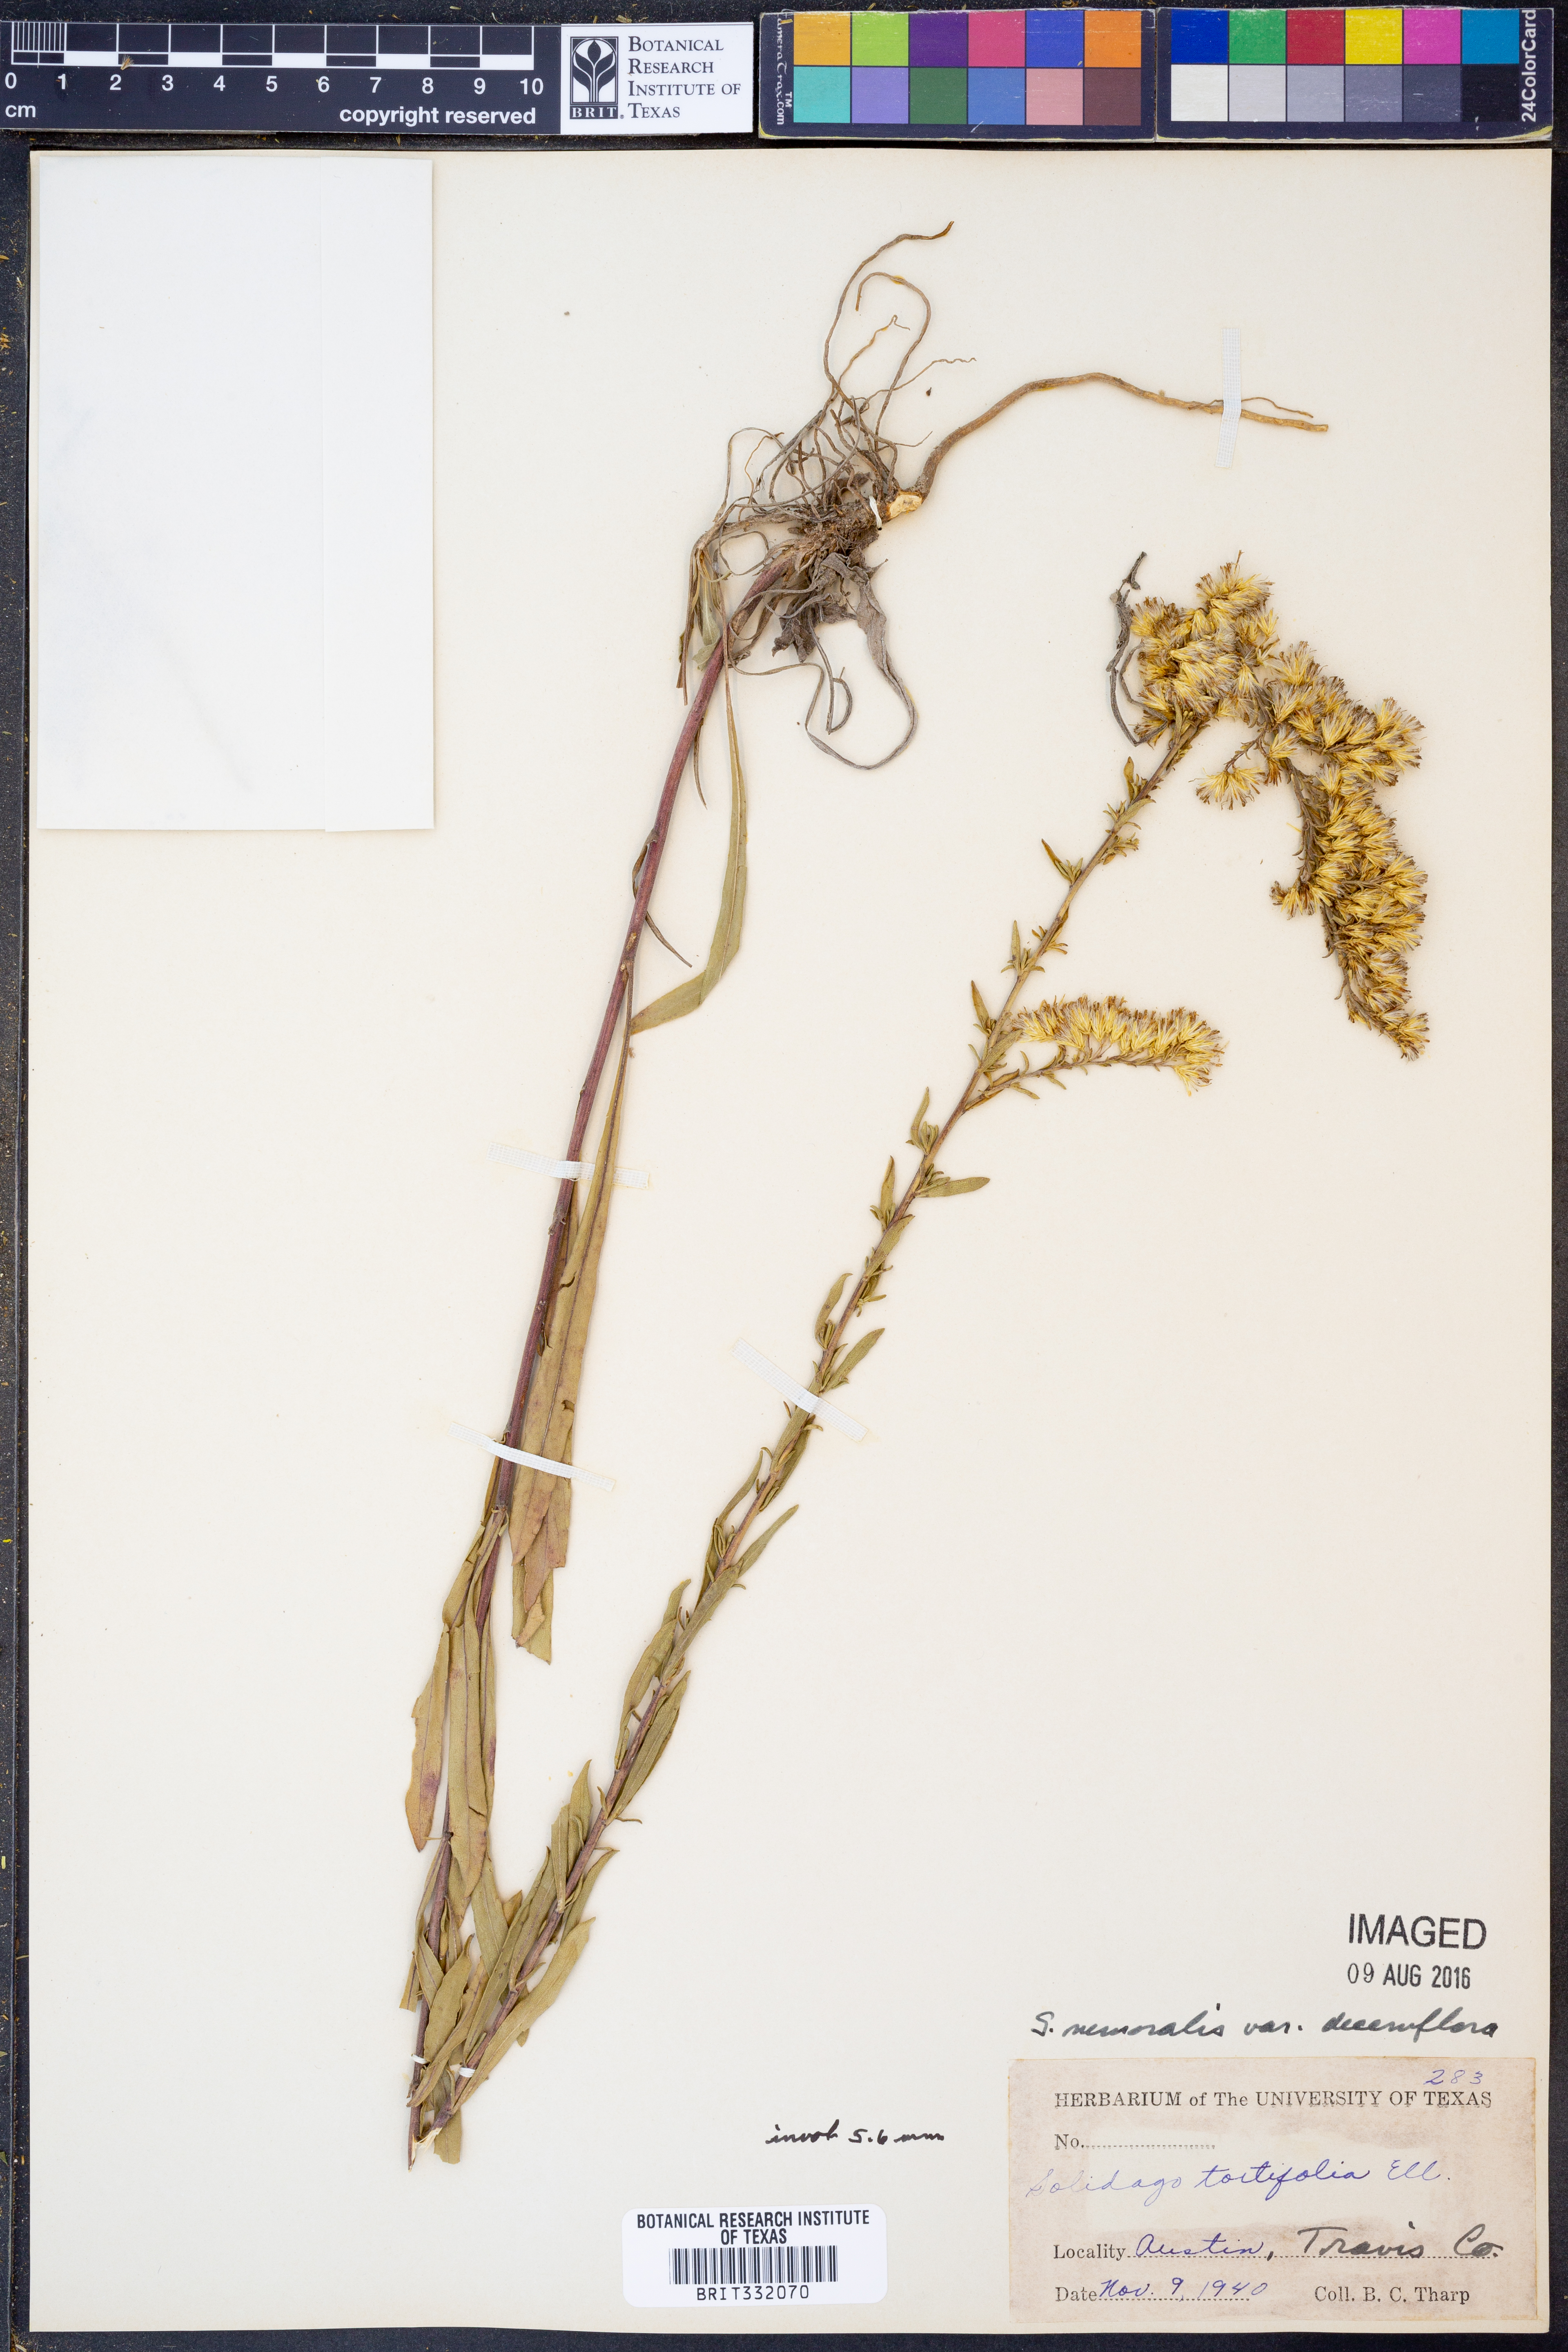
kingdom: Plantae
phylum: Tracheophyta
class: Magnoliopsida
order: Asterales
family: Asteraceae
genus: Solidago
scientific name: Solidago decemflora
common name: Prairie grey-stemmed goldenrod
